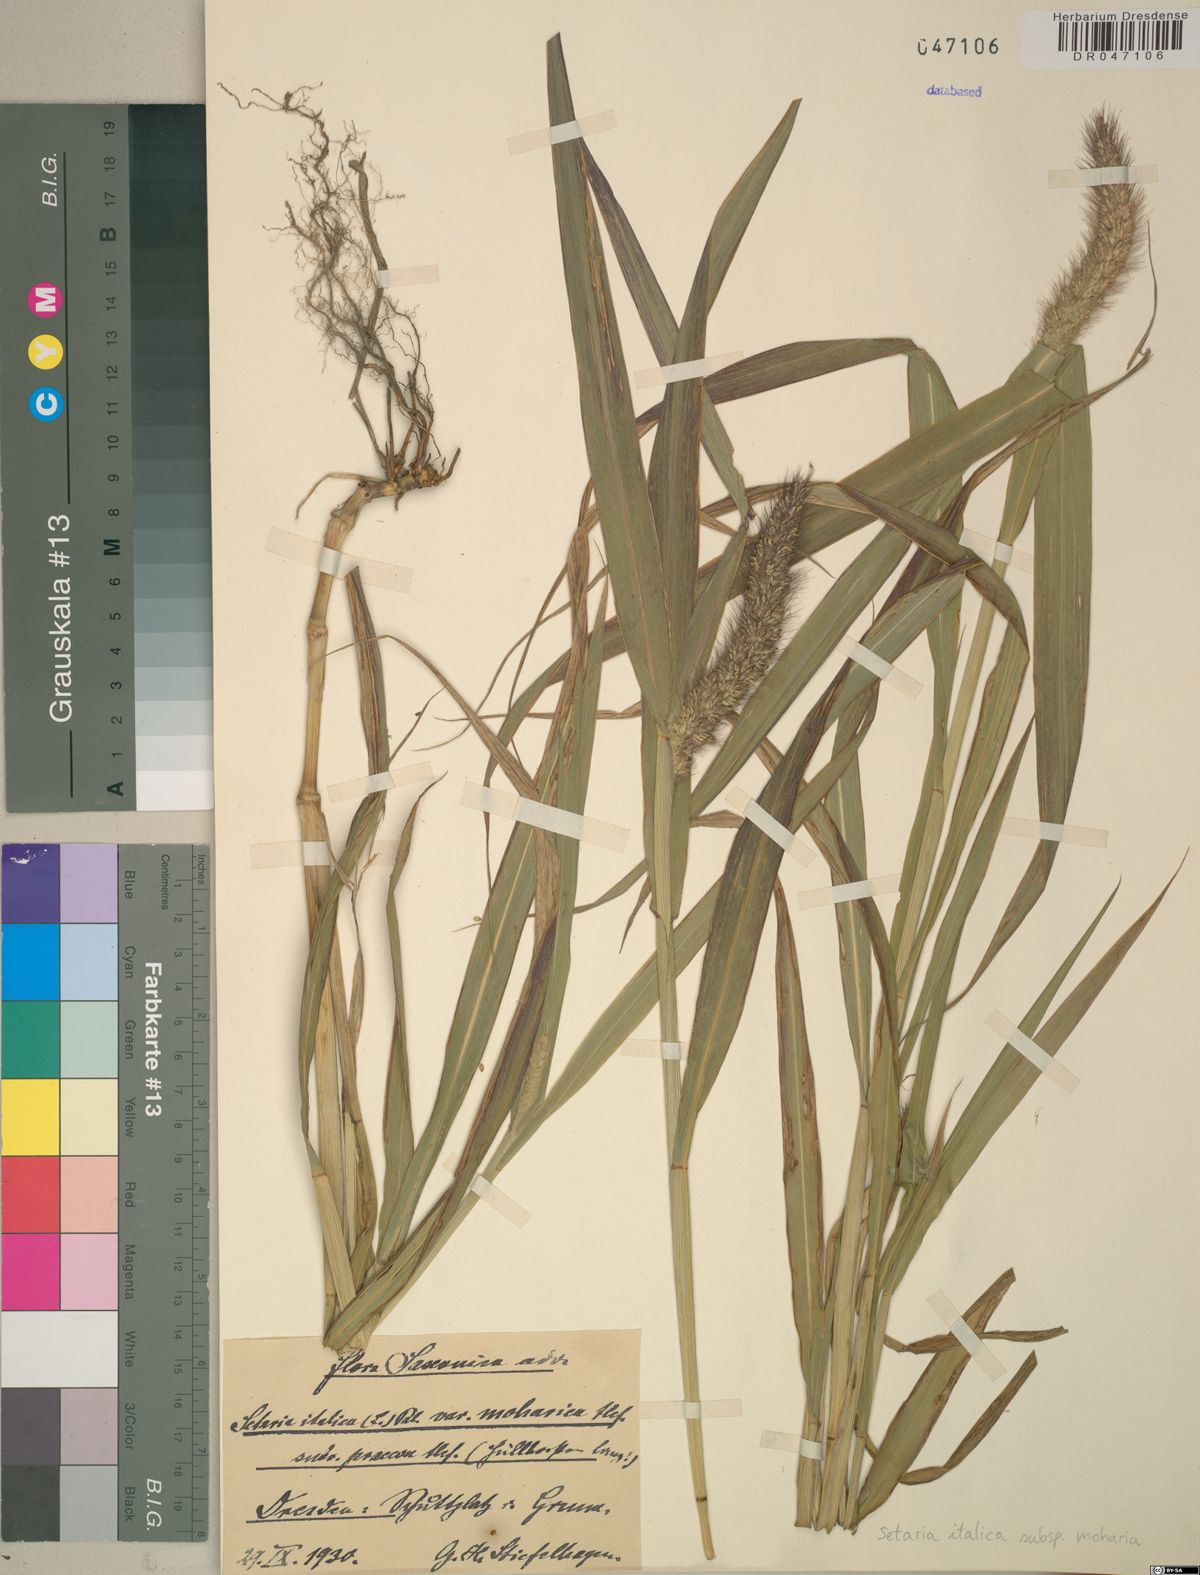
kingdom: Plantae
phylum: Tracheophyta
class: Liliopsida
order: Poales
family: Poaceae
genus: Setaria
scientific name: Setaria italica
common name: Foxtail bristle-grass
